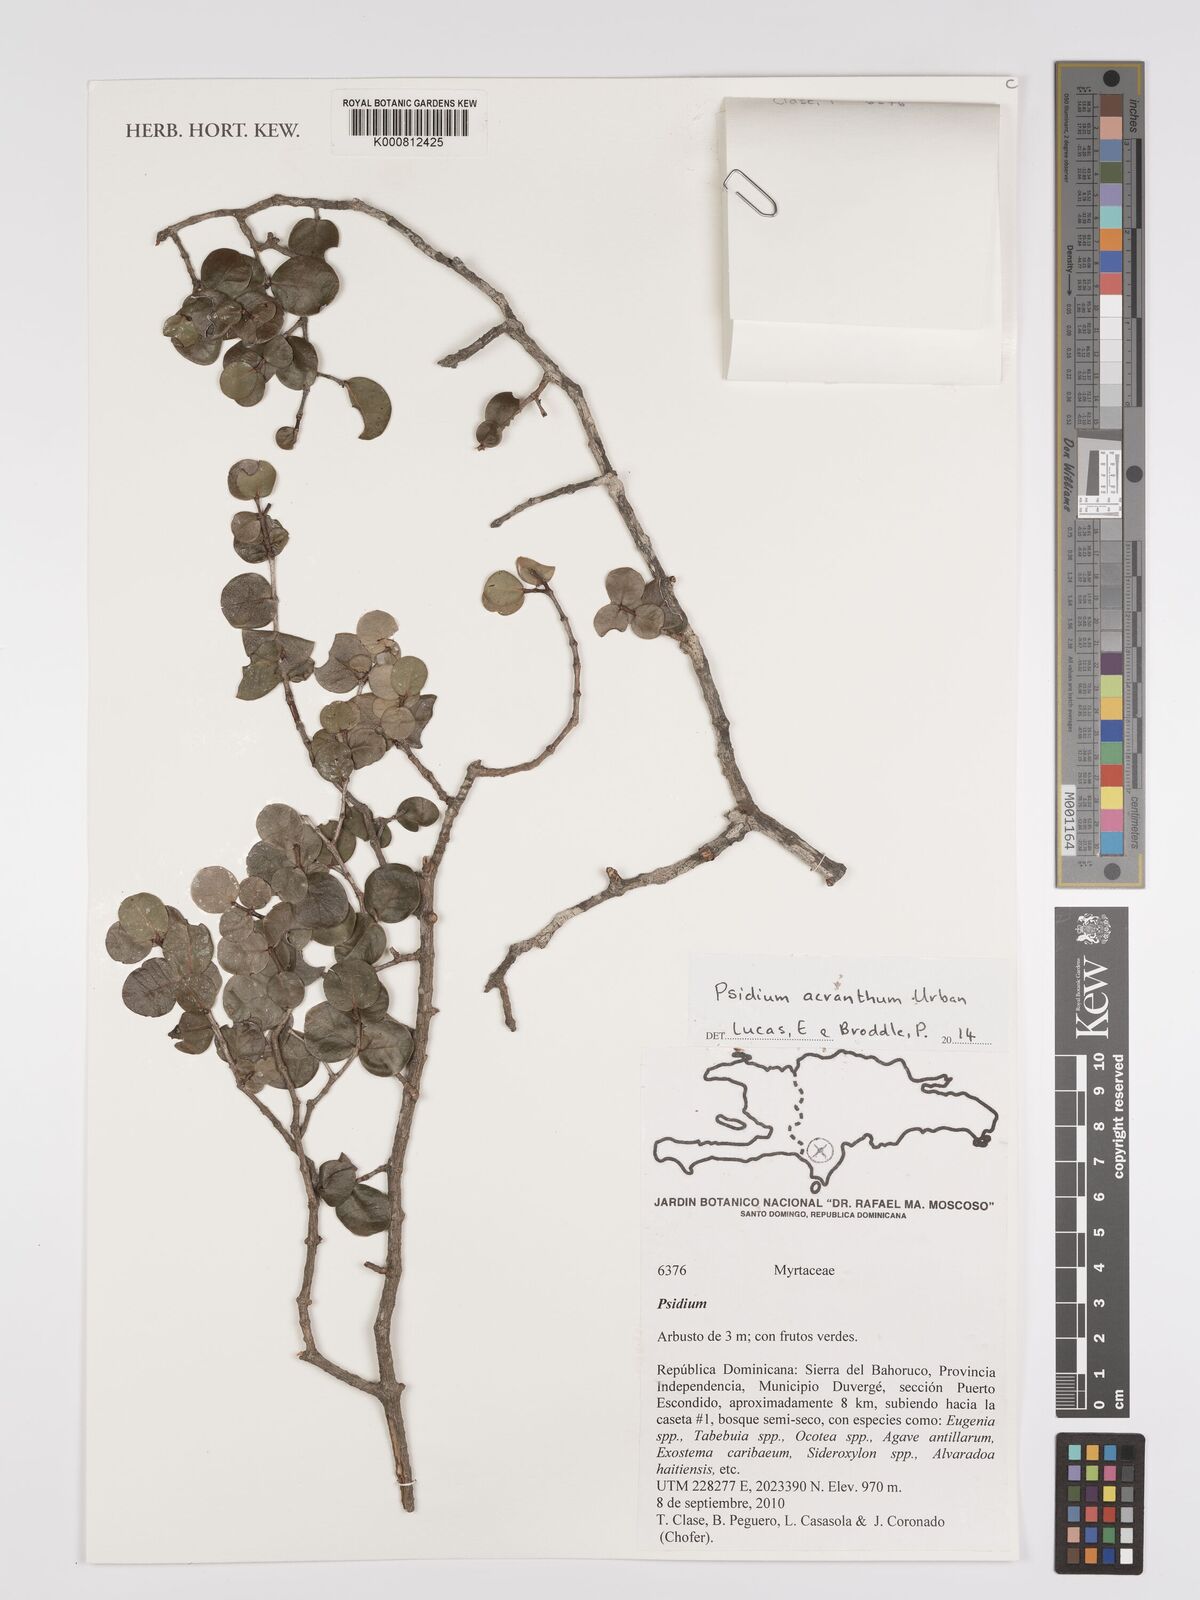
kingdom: Plantae
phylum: Tracheophyta
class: Magnoliopsida
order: Myrtales
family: Myrtaceae
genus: Psidium
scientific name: Psidium acranthum
